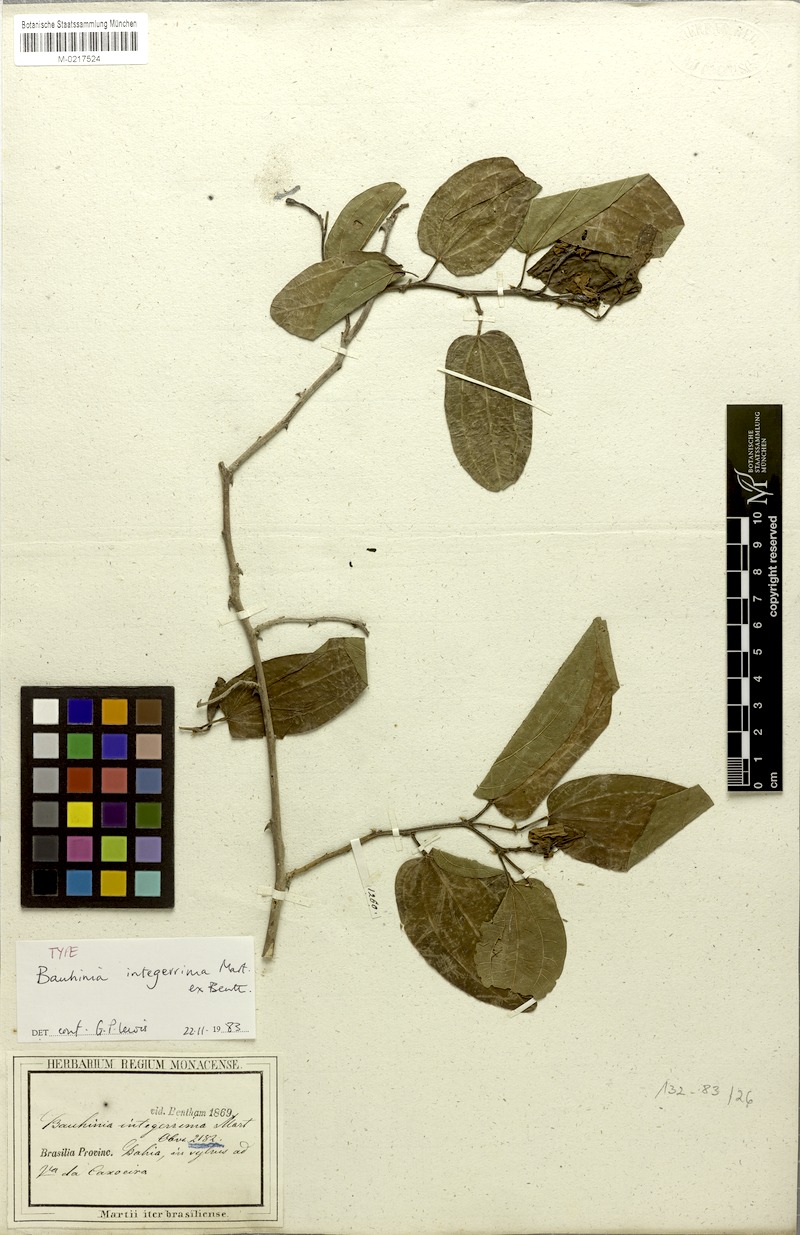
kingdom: Plantae
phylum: Tracheophyta
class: Magnoliopsida
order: Fabales
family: Fabaceae
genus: Bauhinia
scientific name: Bauhinia integerrima
